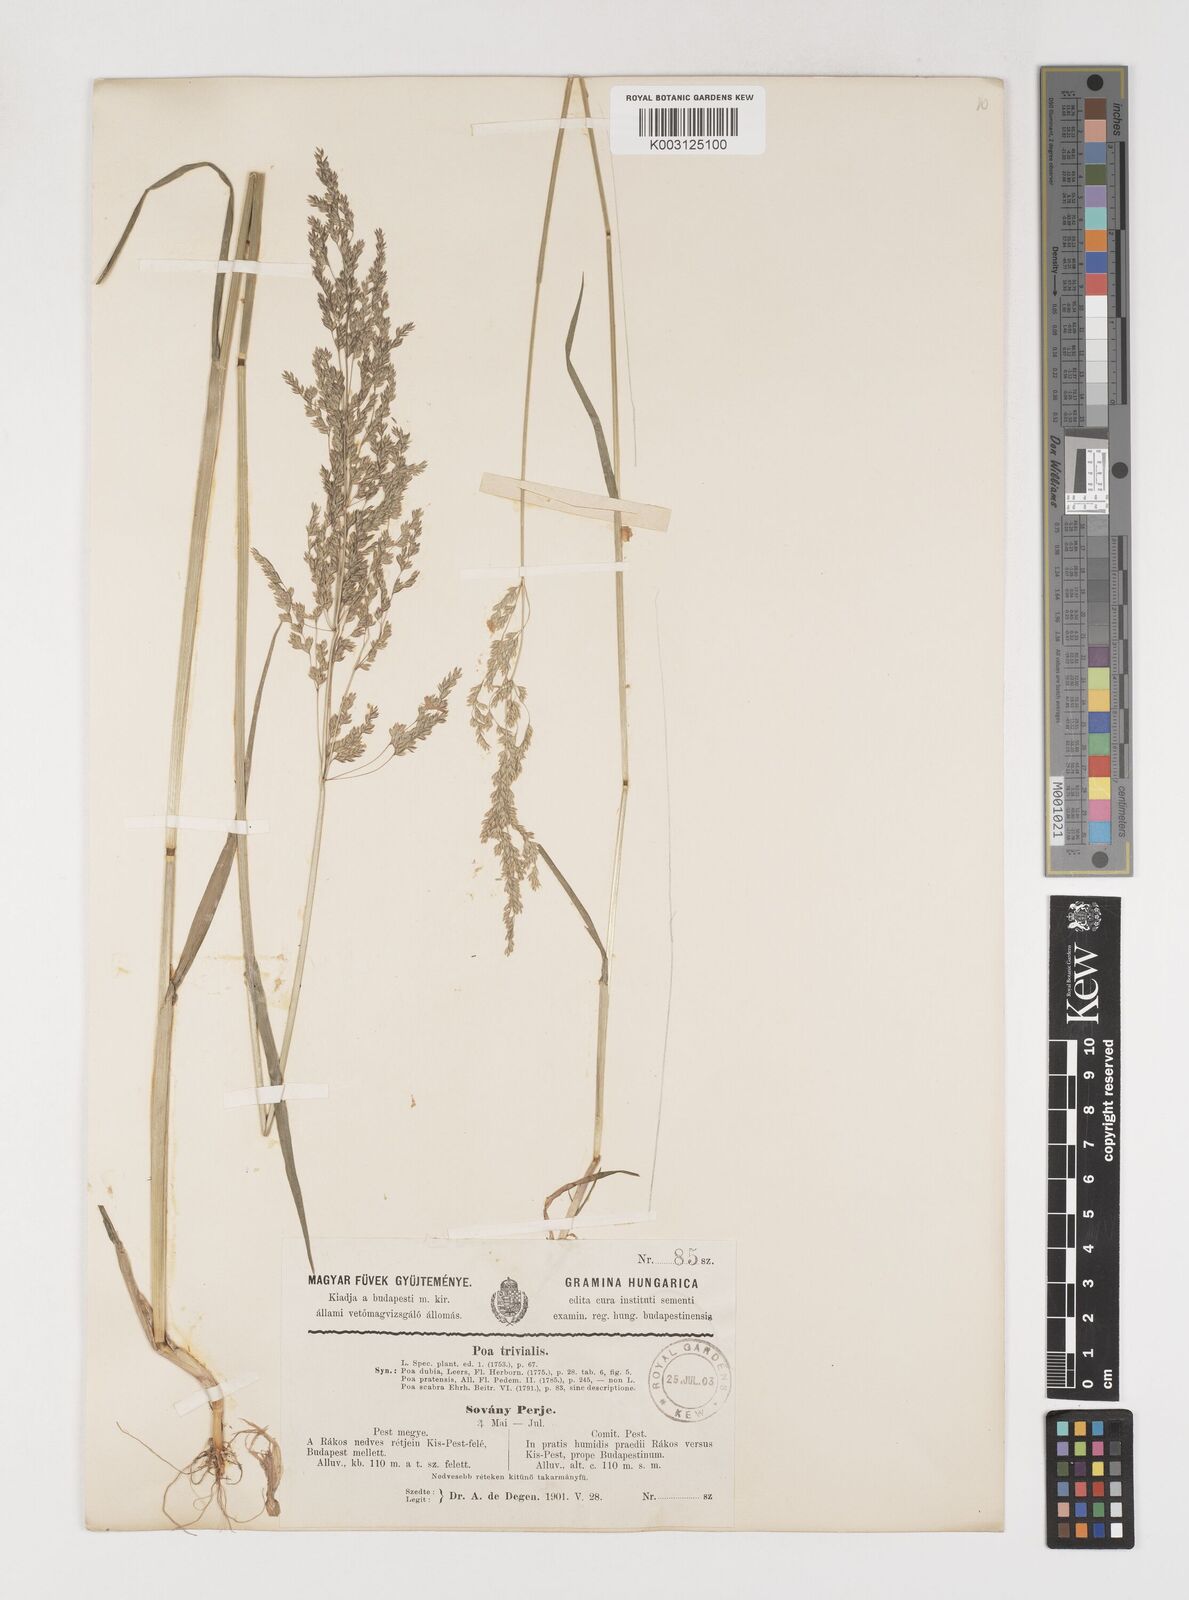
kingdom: Plantae
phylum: Tracheophyta
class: Liliopsida
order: Poales
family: Poaceae
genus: Poa
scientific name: Poa trivialis
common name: Rough bluegrass
